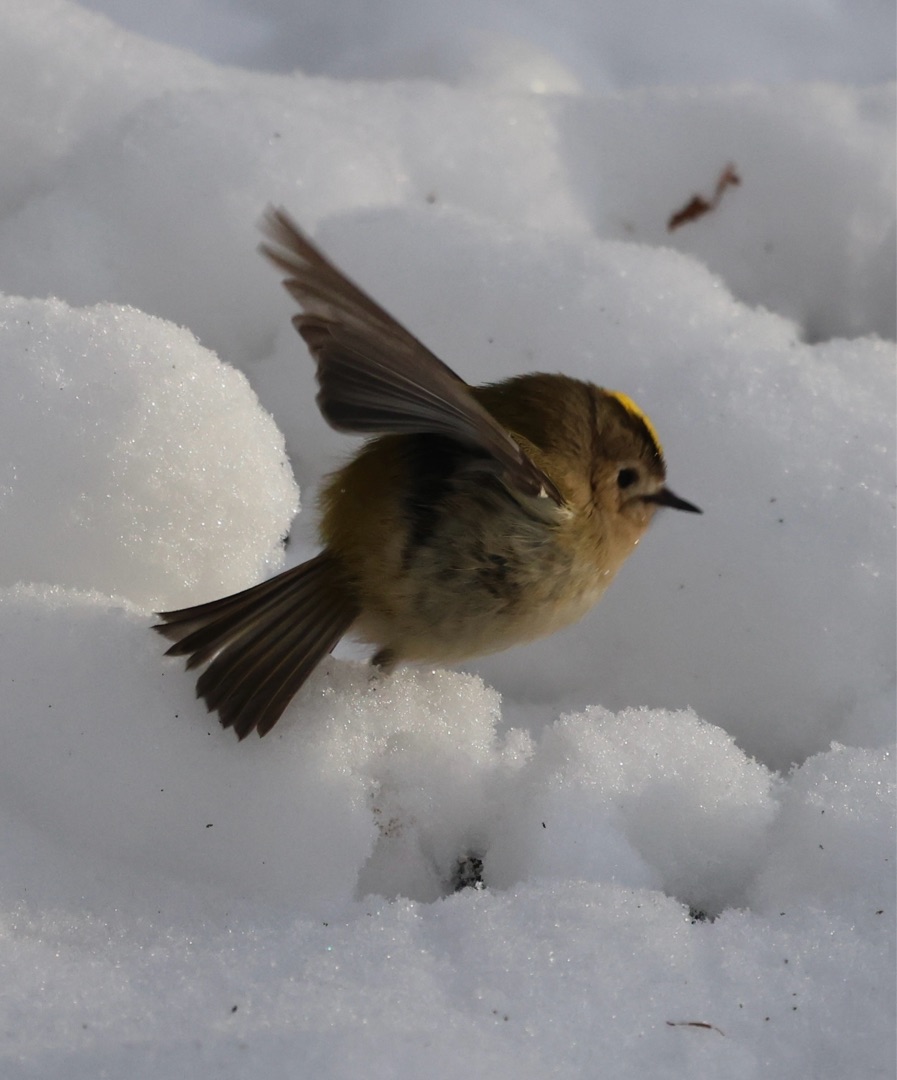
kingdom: Animalia
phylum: Chordata
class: Aves
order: Passeriformes
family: Regulidae
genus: Regulus
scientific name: Regulus regulus
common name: Fuglekonge
